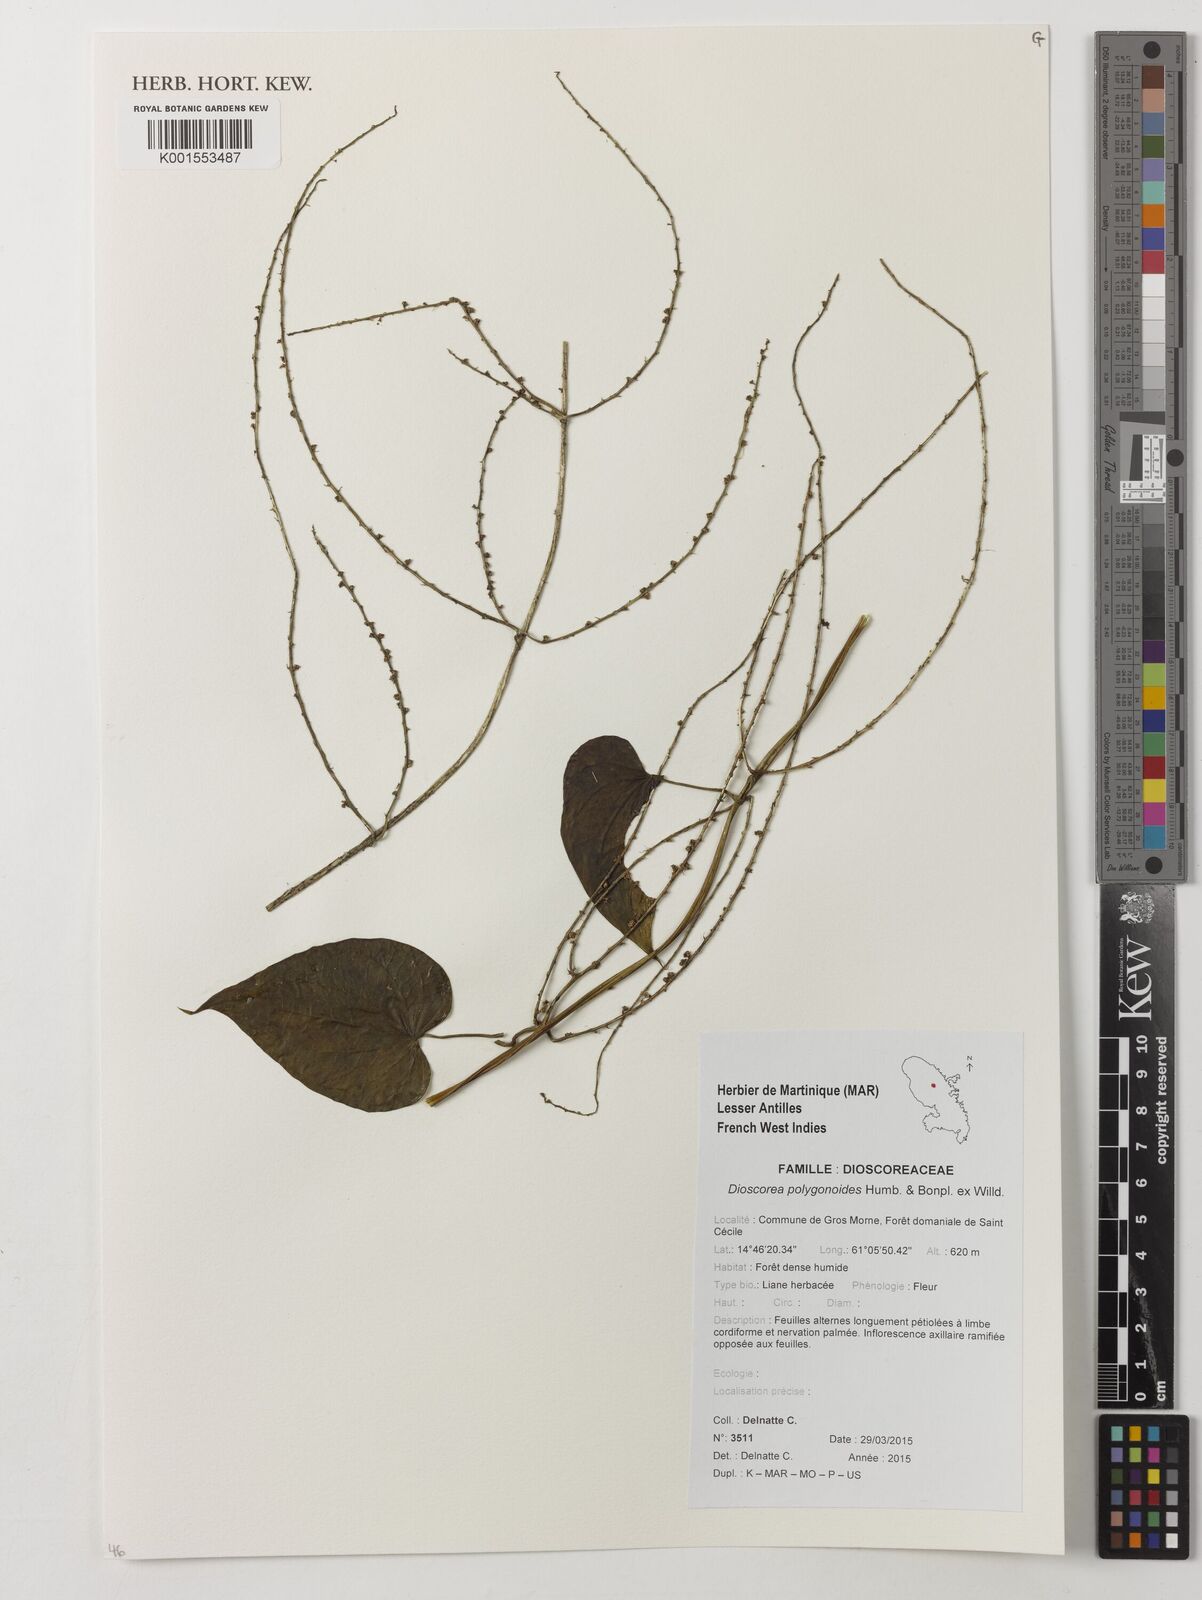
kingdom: Plantae
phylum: Tracheophyta
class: Liliopsida
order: Dioscoreales
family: Dioscoreaceae
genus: Dioscorea
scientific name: Dioscorea polygonoides
